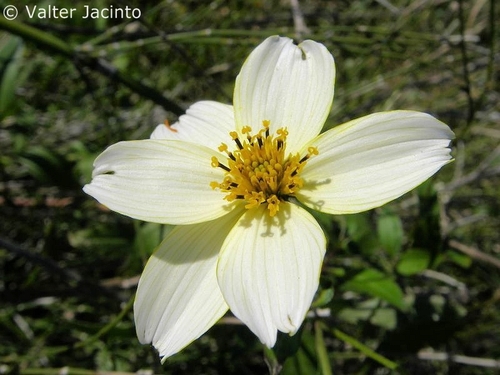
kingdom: Plantae
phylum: Tracheophyta
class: Magnoliopsida
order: Asterales
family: Asteraceae
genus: Bidens
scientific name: Bidens aurea
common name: Arizona beggar-ticks
